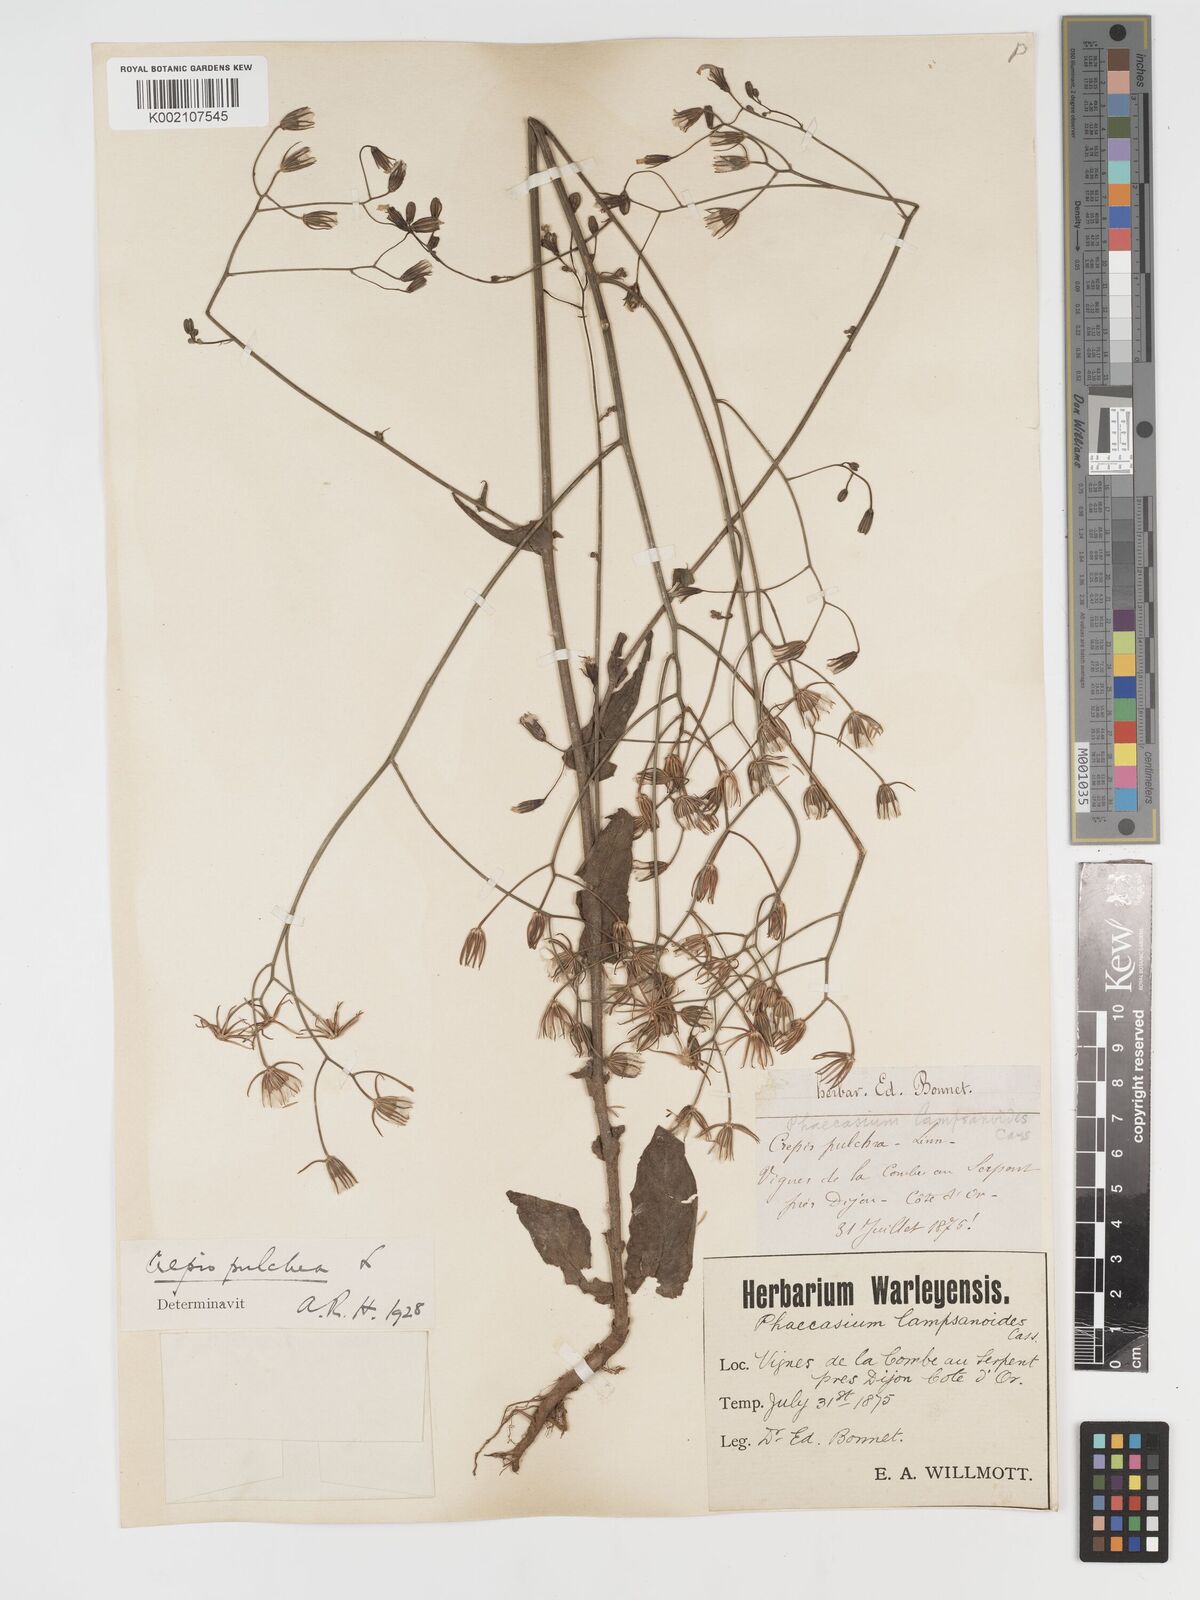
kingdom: Plantae
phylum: Tracheophyta
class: Magnoliopsida
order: Asterales
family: Asteraceae
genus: Crepis
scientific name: Crepis pulchra
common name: Hawk's-beard
